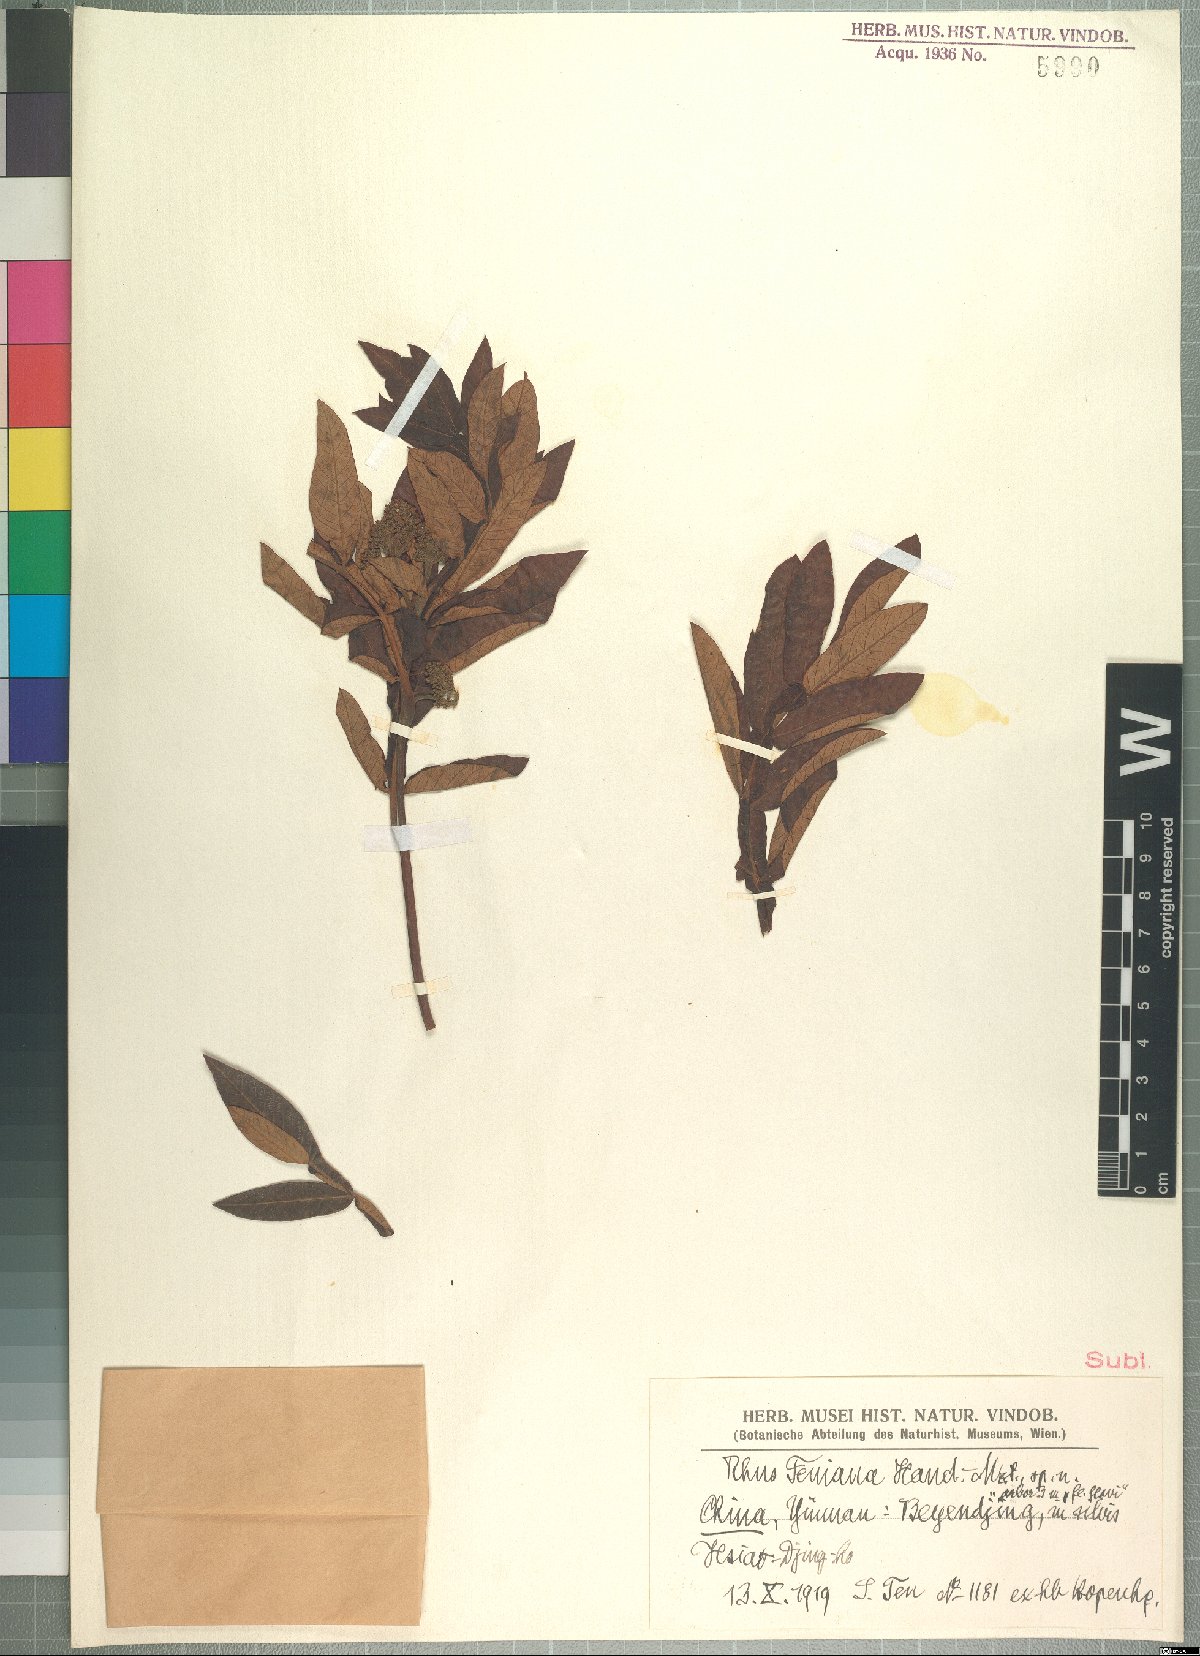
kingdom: Plantae
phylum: Tracheophyta
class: Magnoliopsida
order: Sapindales
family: Anacardiaceae
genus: Rhus
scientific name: Rhus teniana
